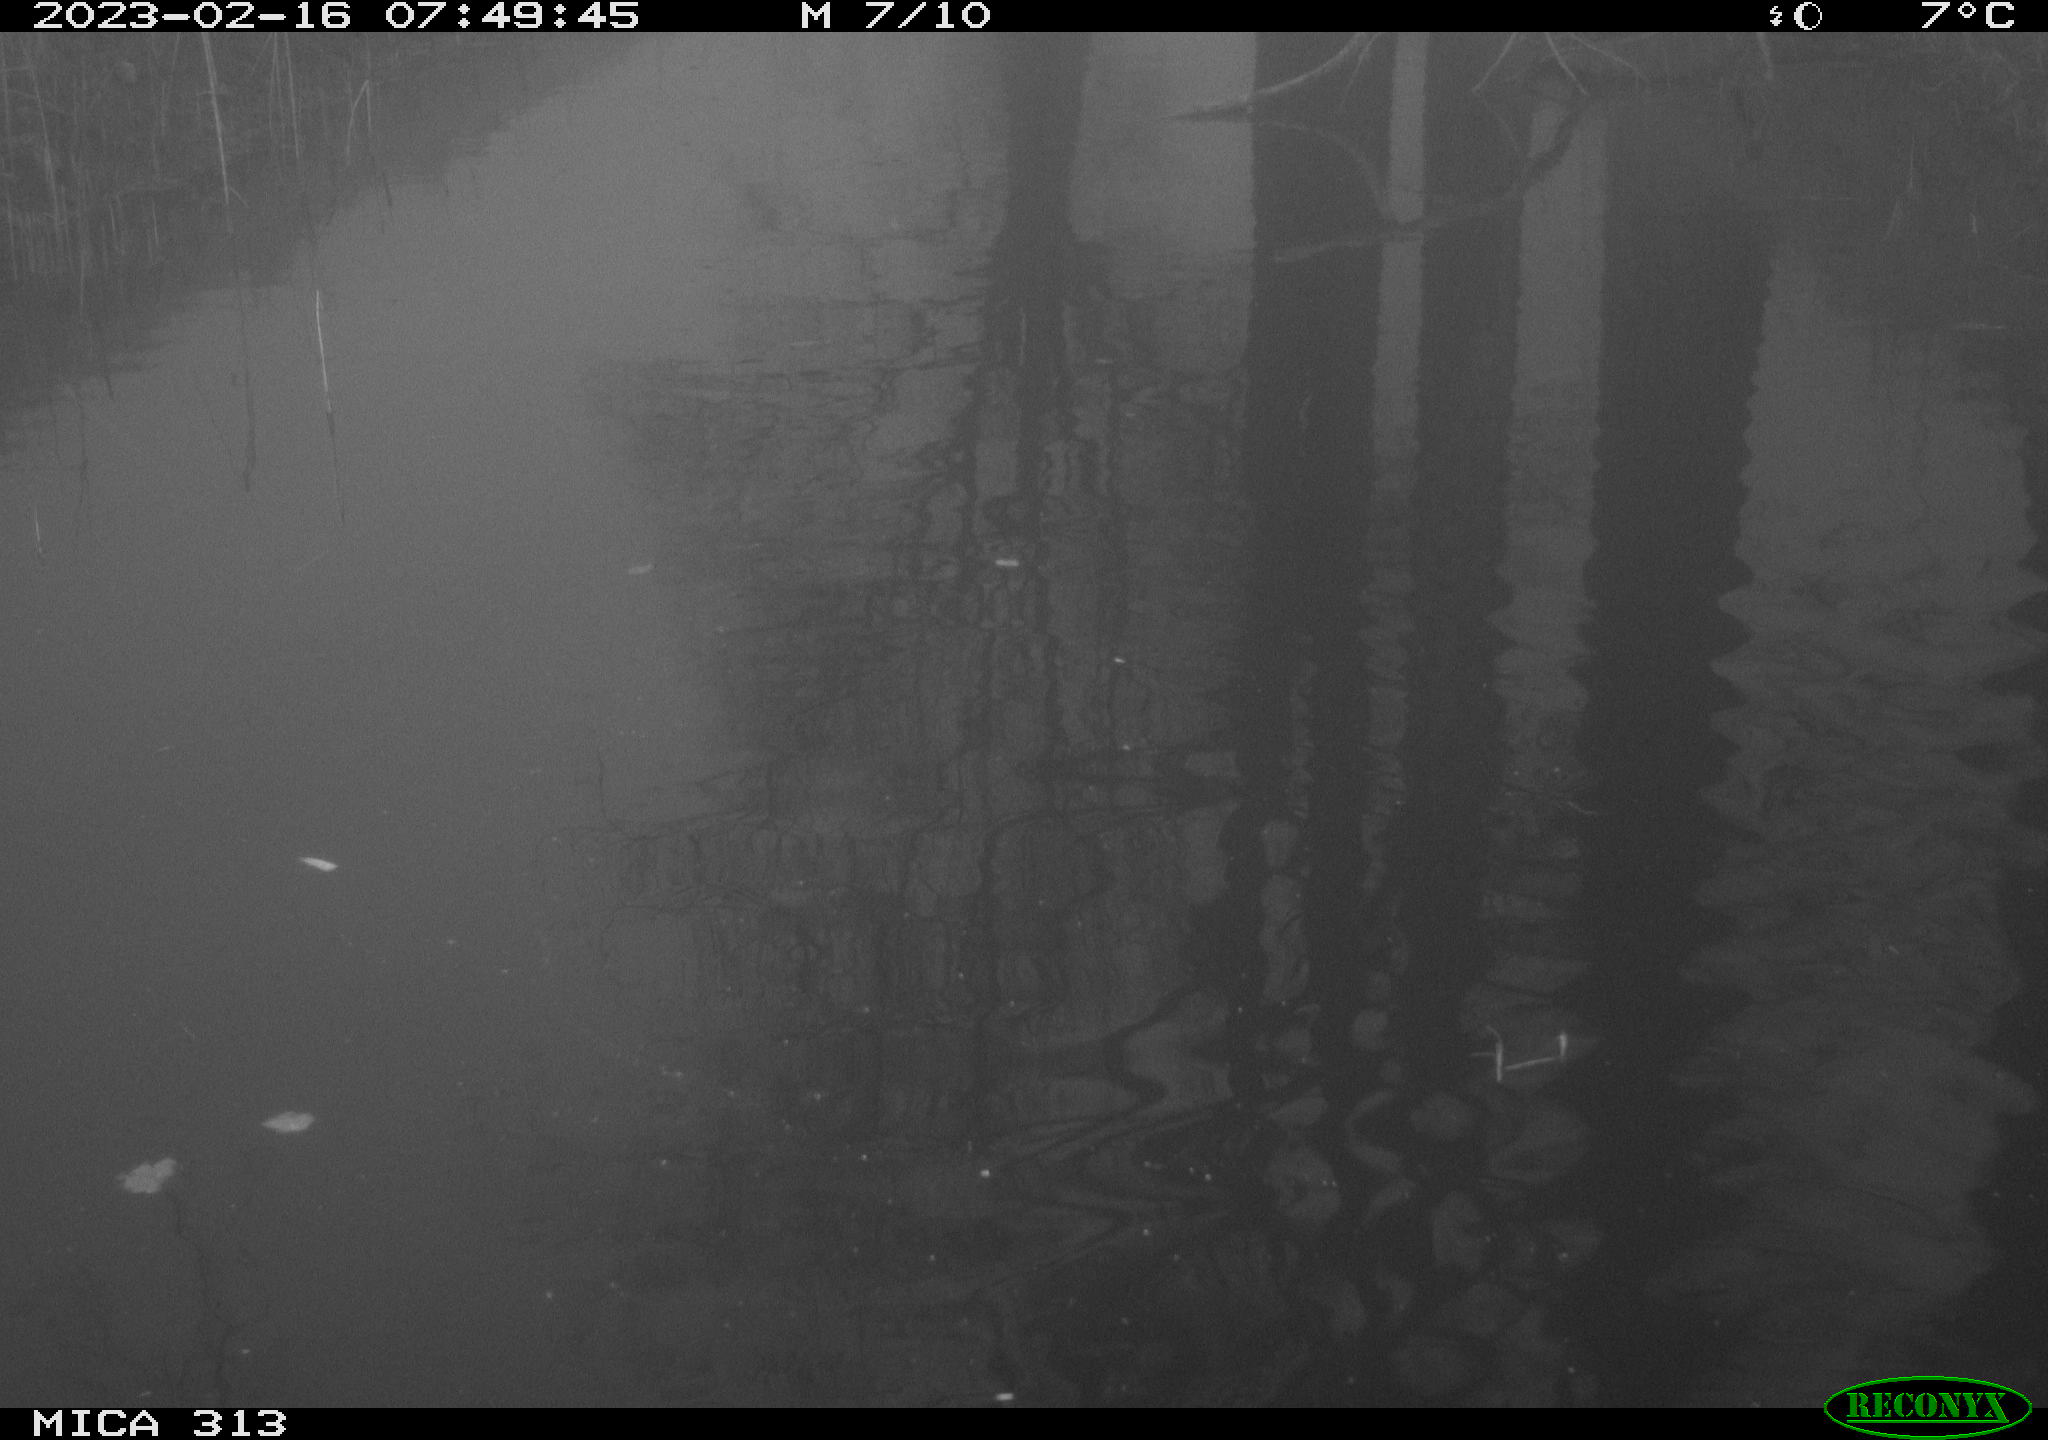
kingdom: Animalia
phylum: Chordata
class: Aves
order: Gruiformes
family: Rallidae
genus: Gallinula
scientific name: Gallinula chloropus
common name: Common moorhen
